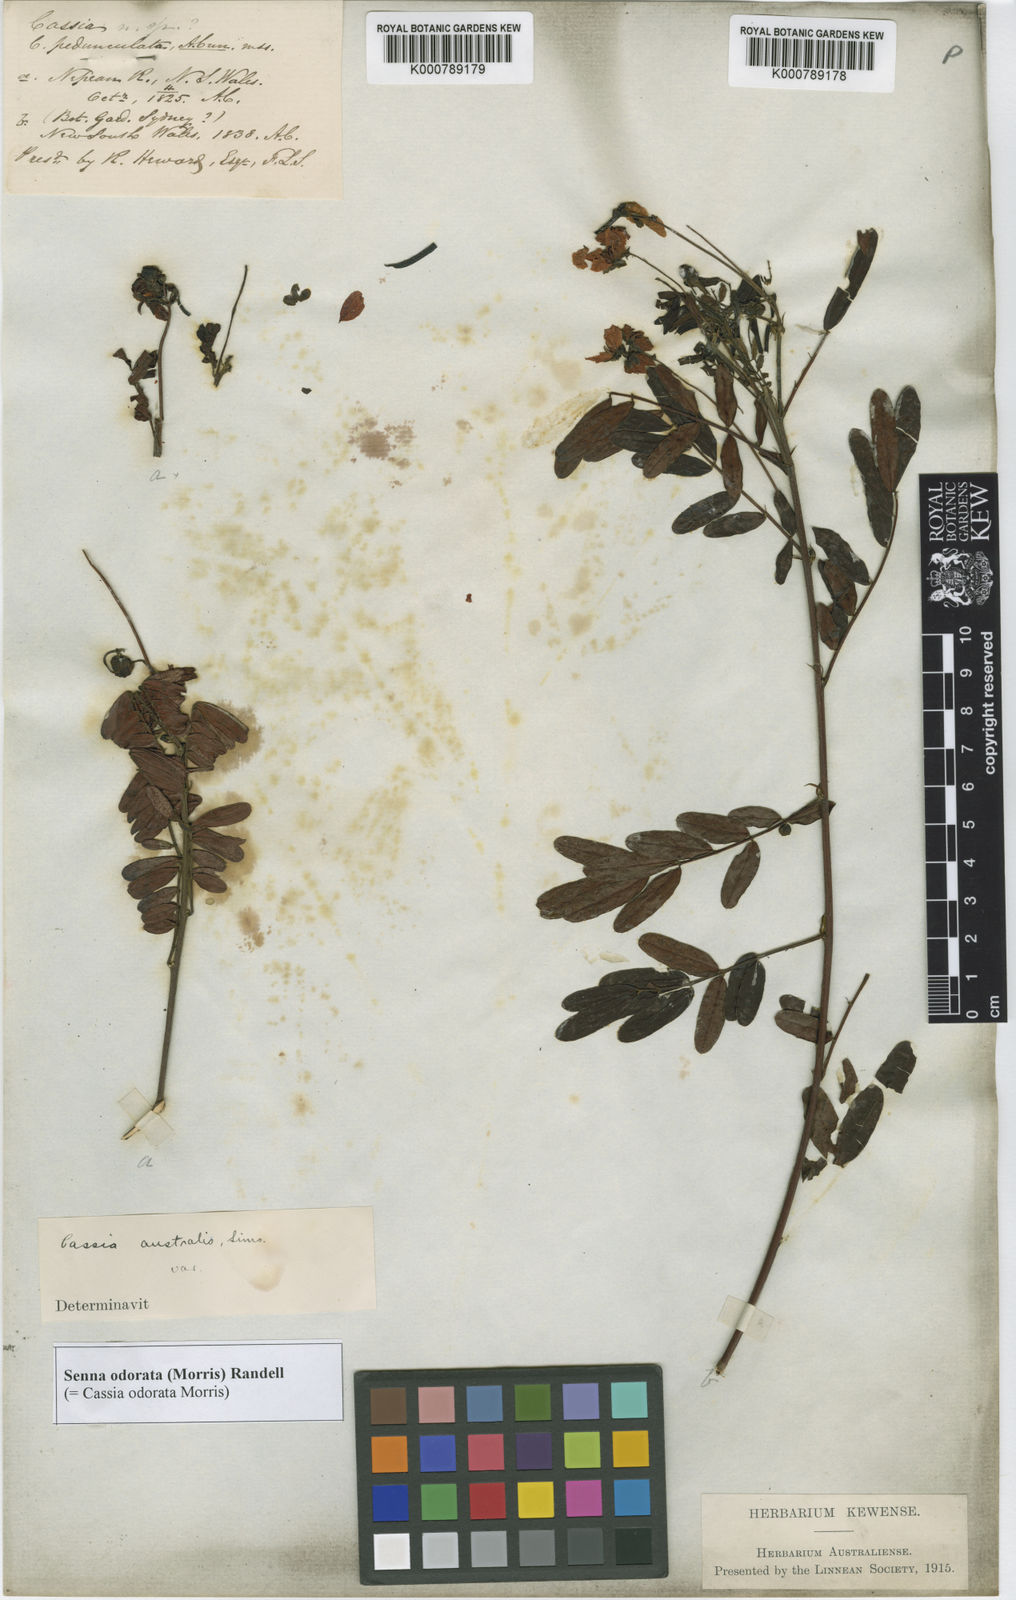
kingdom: Plantae
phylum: Tracheophyta
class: Magnoliopsida
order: Fabales
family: Fabaceae
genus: Senna
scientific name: Senna barronfieldii
